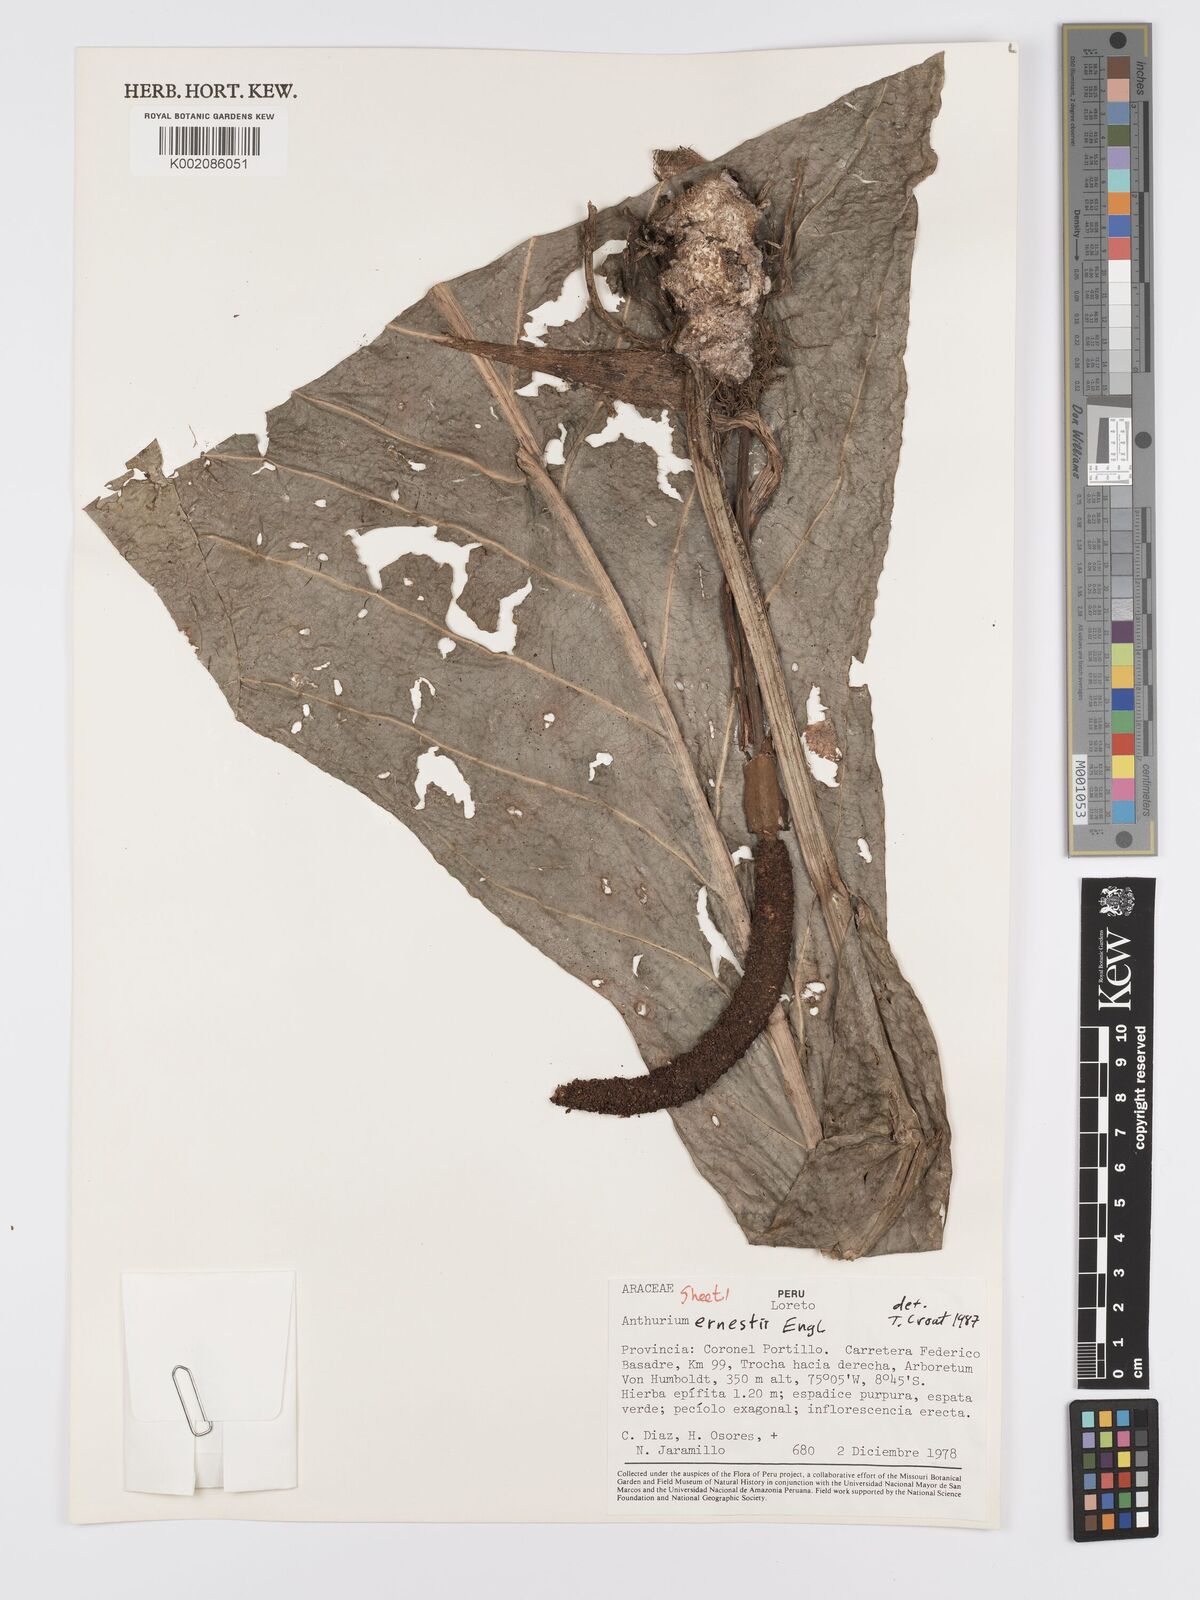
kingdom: Plantae
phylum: Tracheophyta
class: Liliopsida
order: Alismatales
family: Araceae
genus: Anthurium
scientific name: Anthurium ernesti
